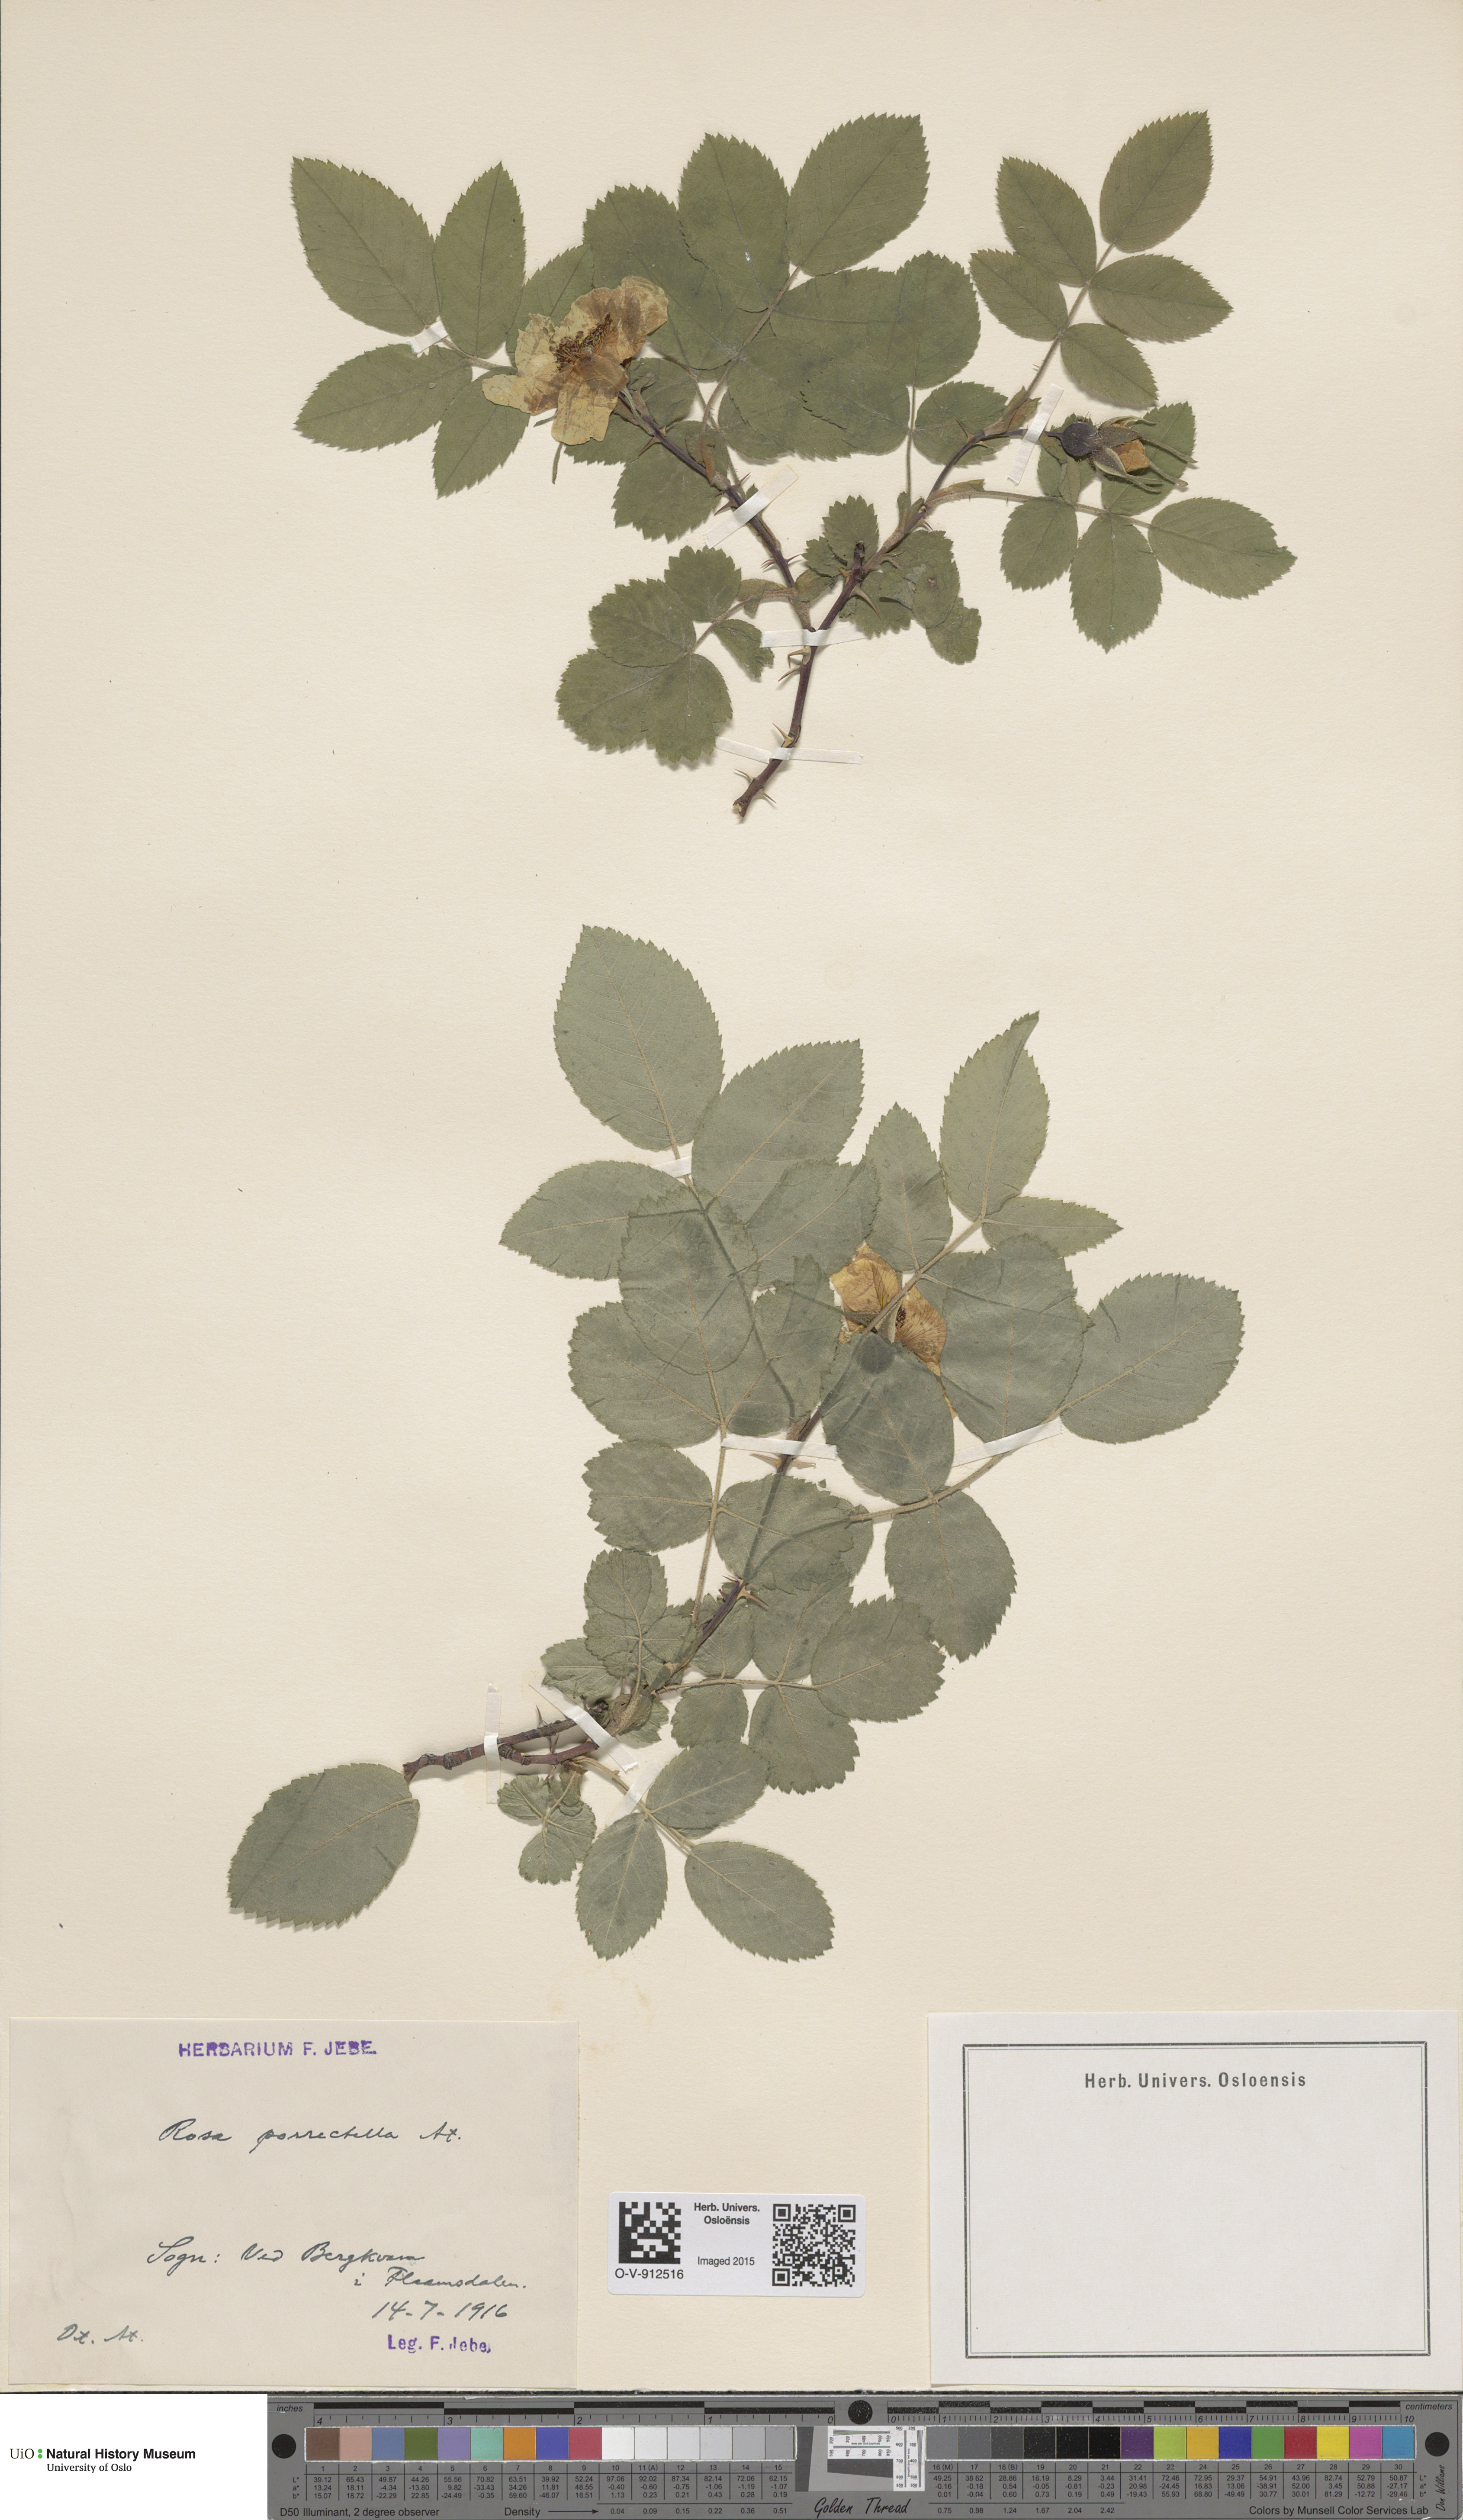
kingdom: Plantae
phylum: Tracheophyta
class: Magnoliopsida
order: Rosales
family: Rosaceae
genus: Rosa
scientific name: Rosa mollis
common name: Rose
